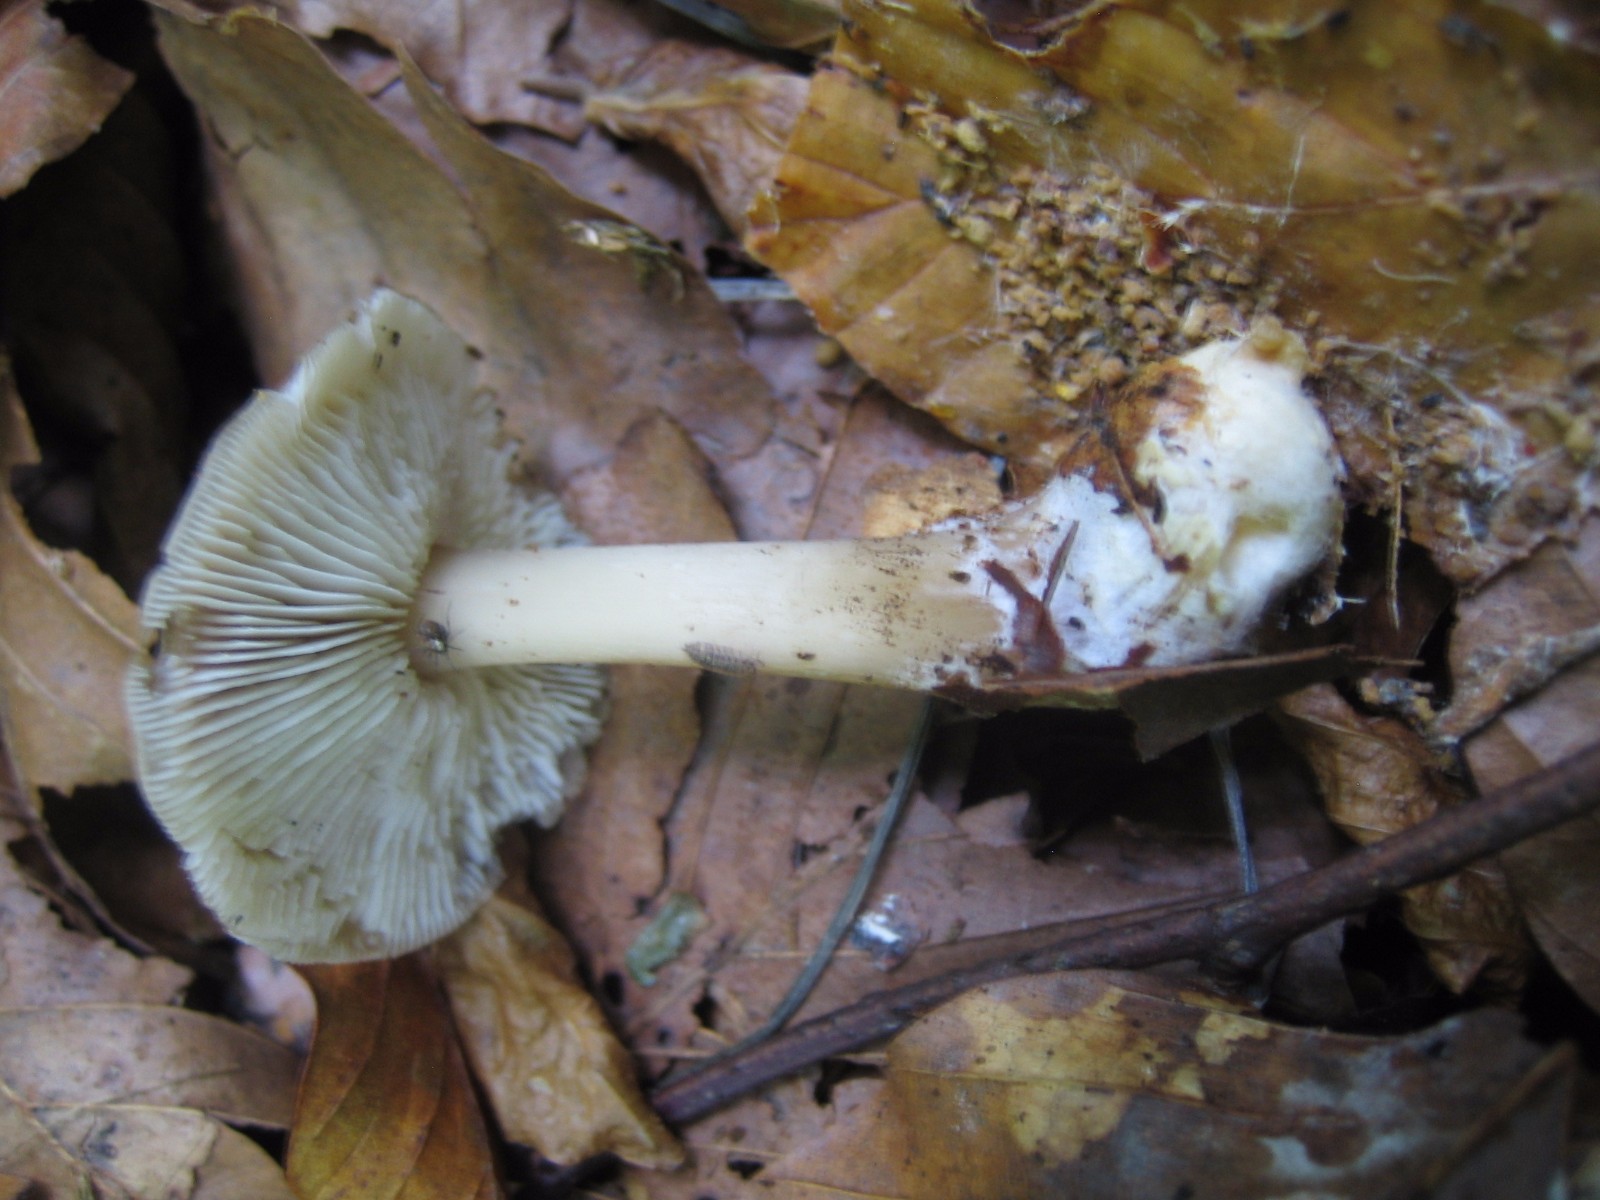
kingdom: Fungi
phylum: Basidiomycota
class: Agaricomycetes
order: Agaricales
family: Omphalotaceae
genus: Rhodocollybia
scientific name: Rhodocollybia asema
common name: horngrå fladhat
